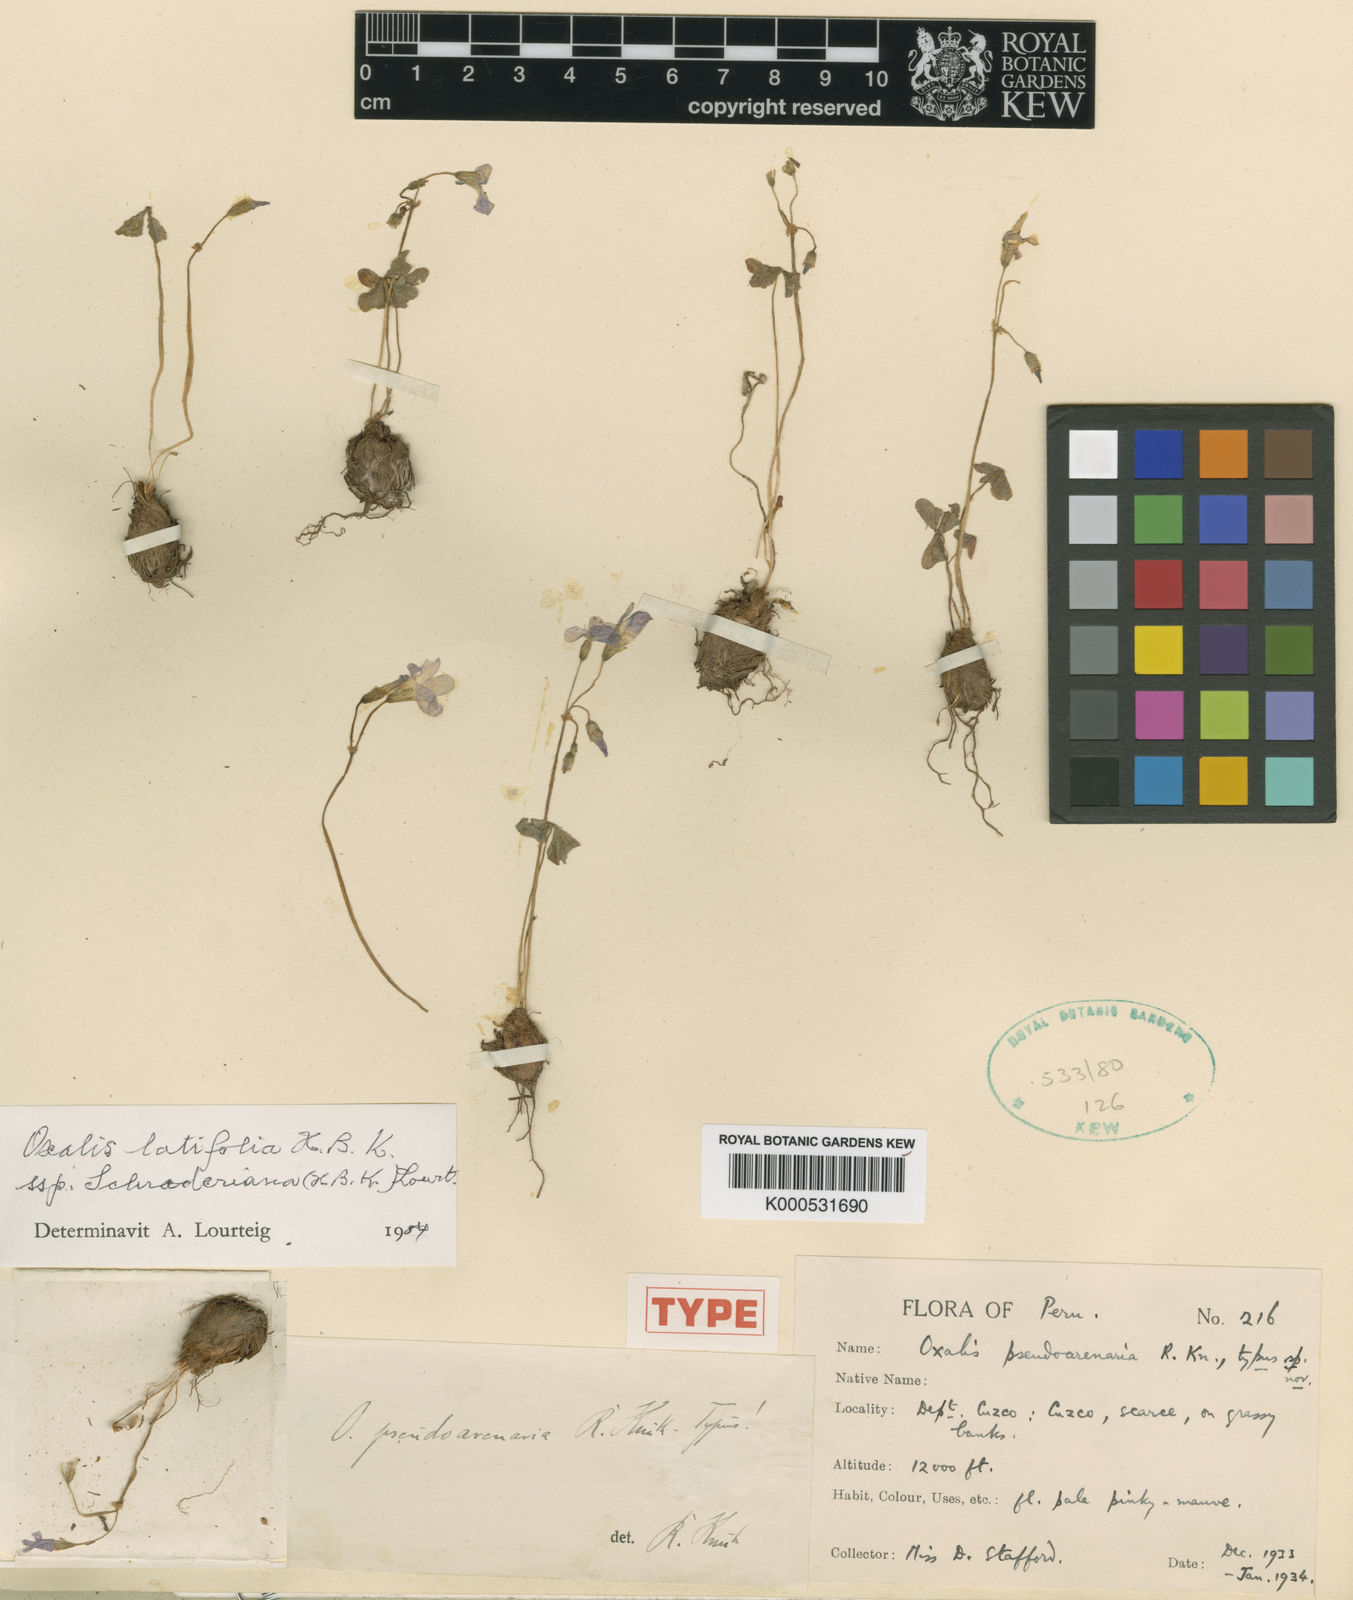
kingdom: Plantae
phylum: Tracheophyta
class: Magnoliopsida
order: Oxalidales
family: Oxalidaceae
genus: Oxalis
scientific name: Oxalis latifolia
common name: Garden pink-sorrel
